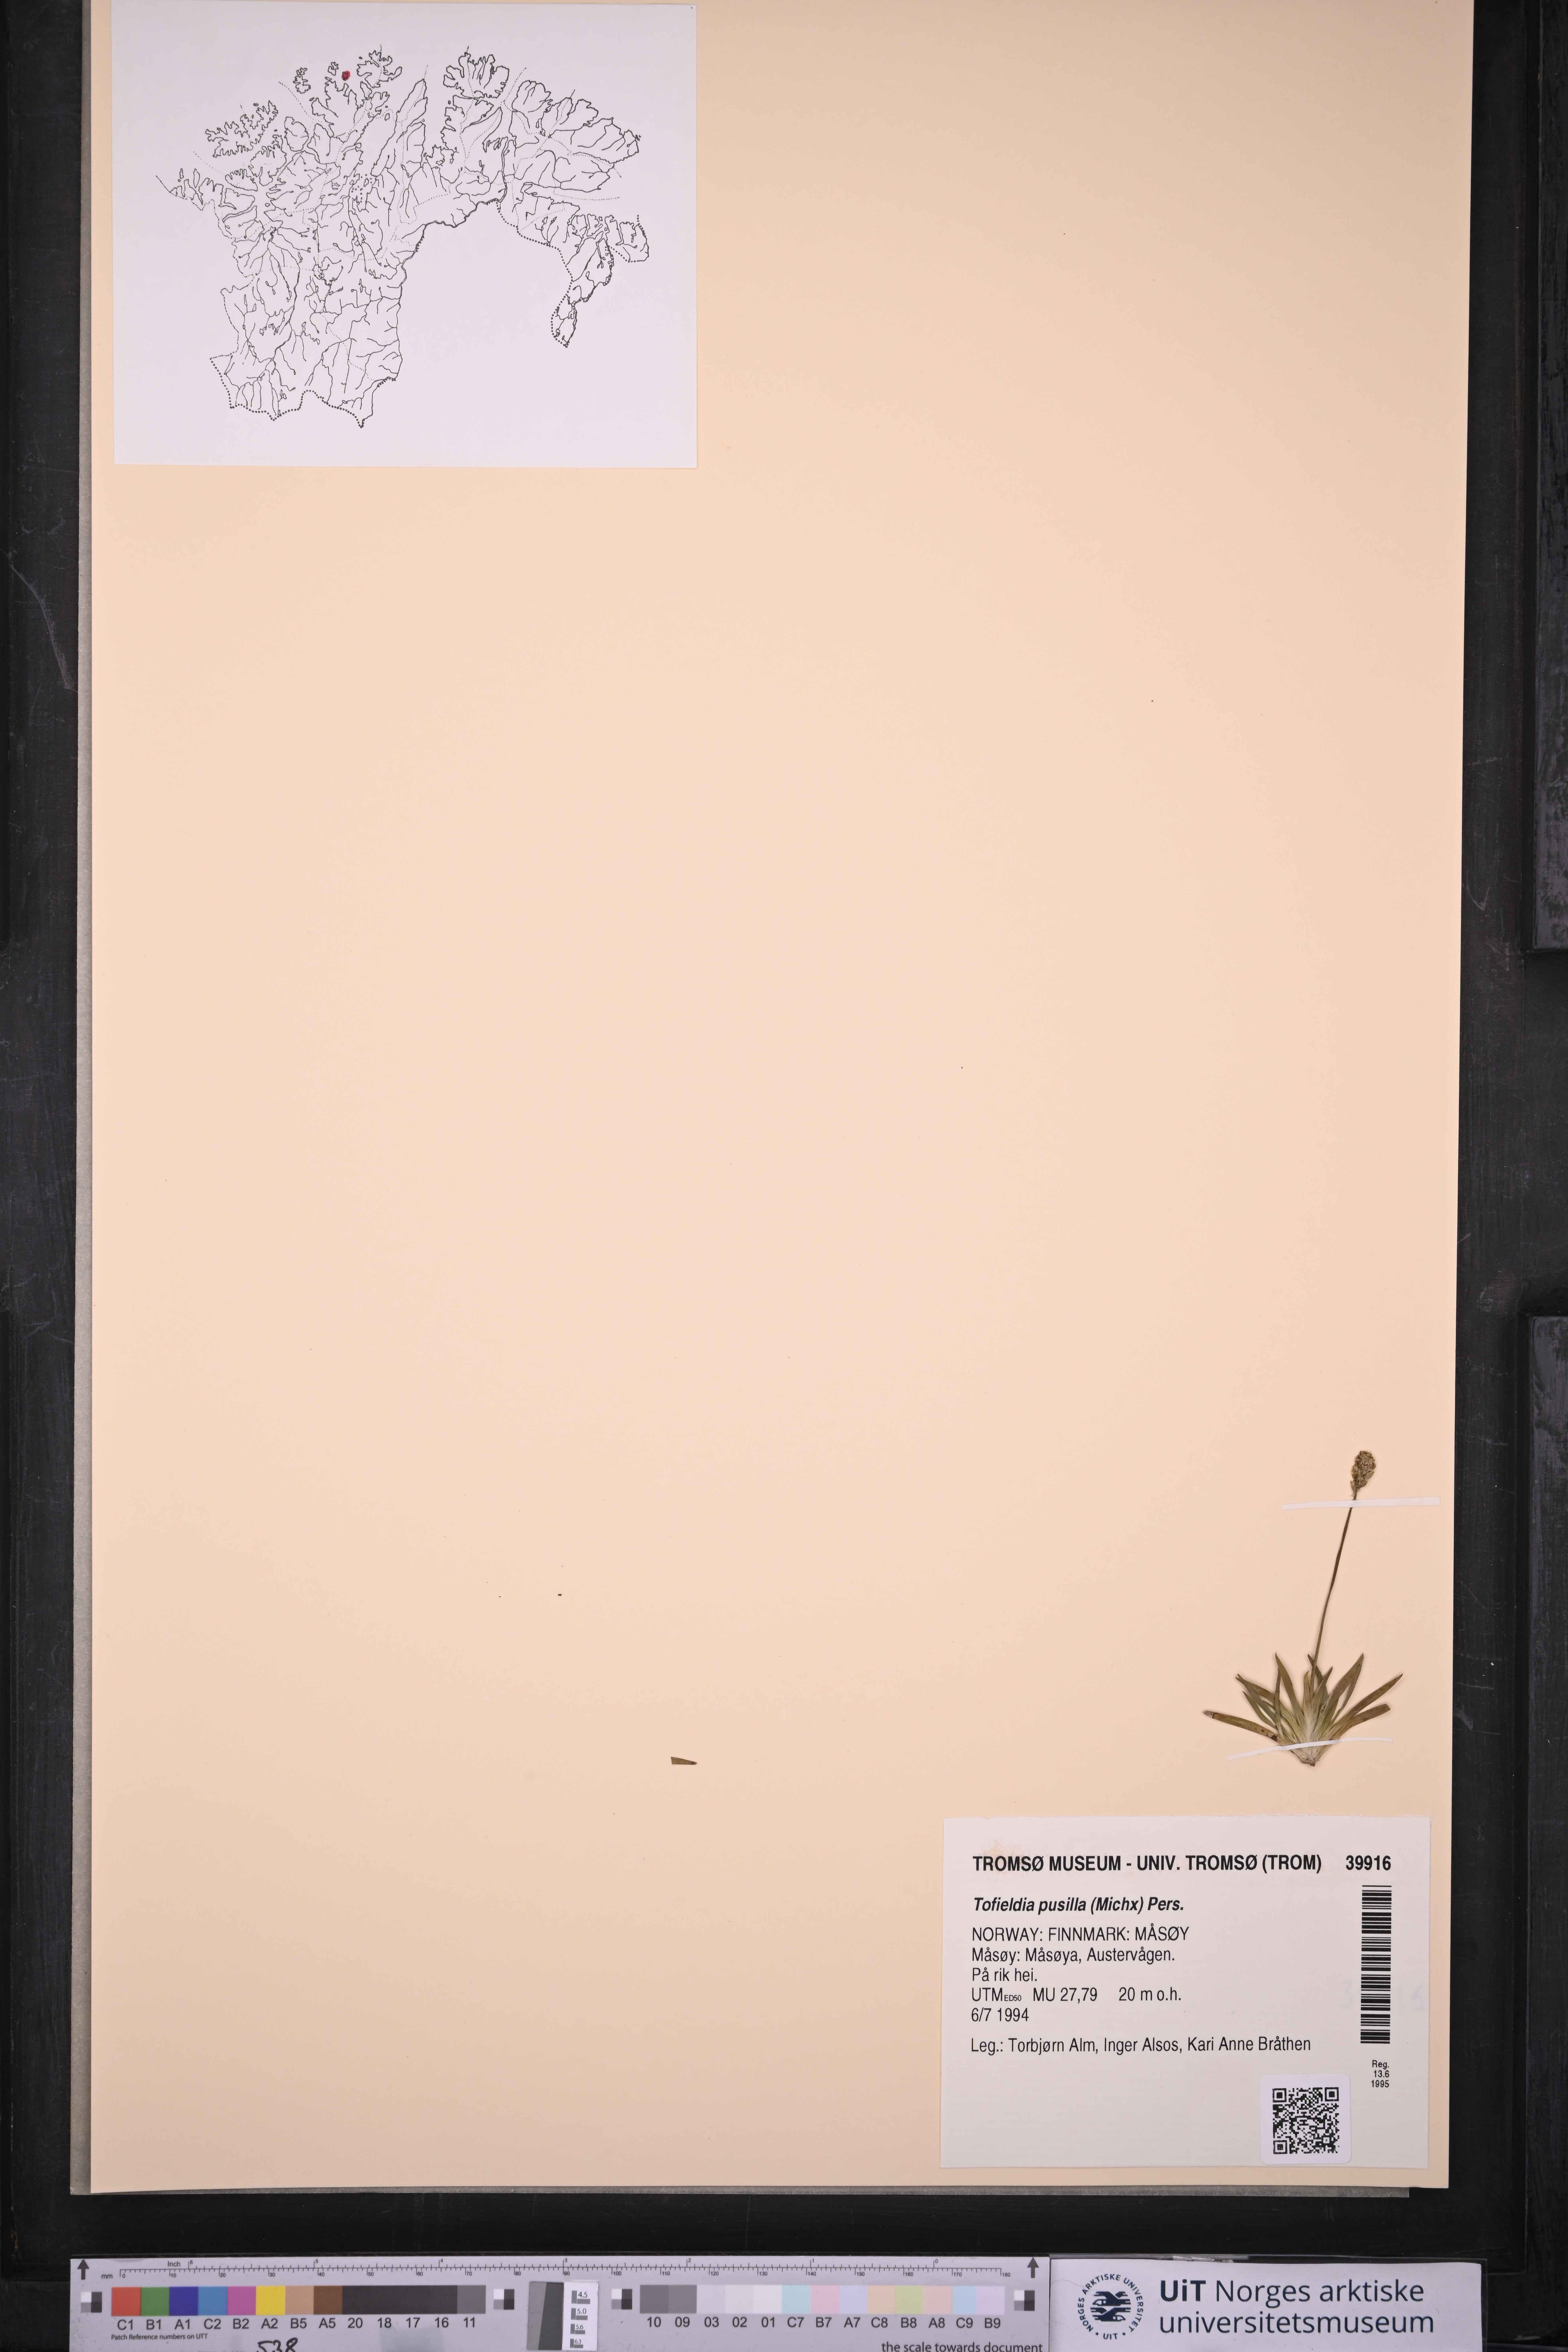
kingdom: Plantae
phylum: Tracheophyta
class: Liliopsida
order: Alismatales
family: Tofieldiaceae
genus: Tofieldia
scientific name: Tofieldia pusilla
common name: Scottish false asphodel
